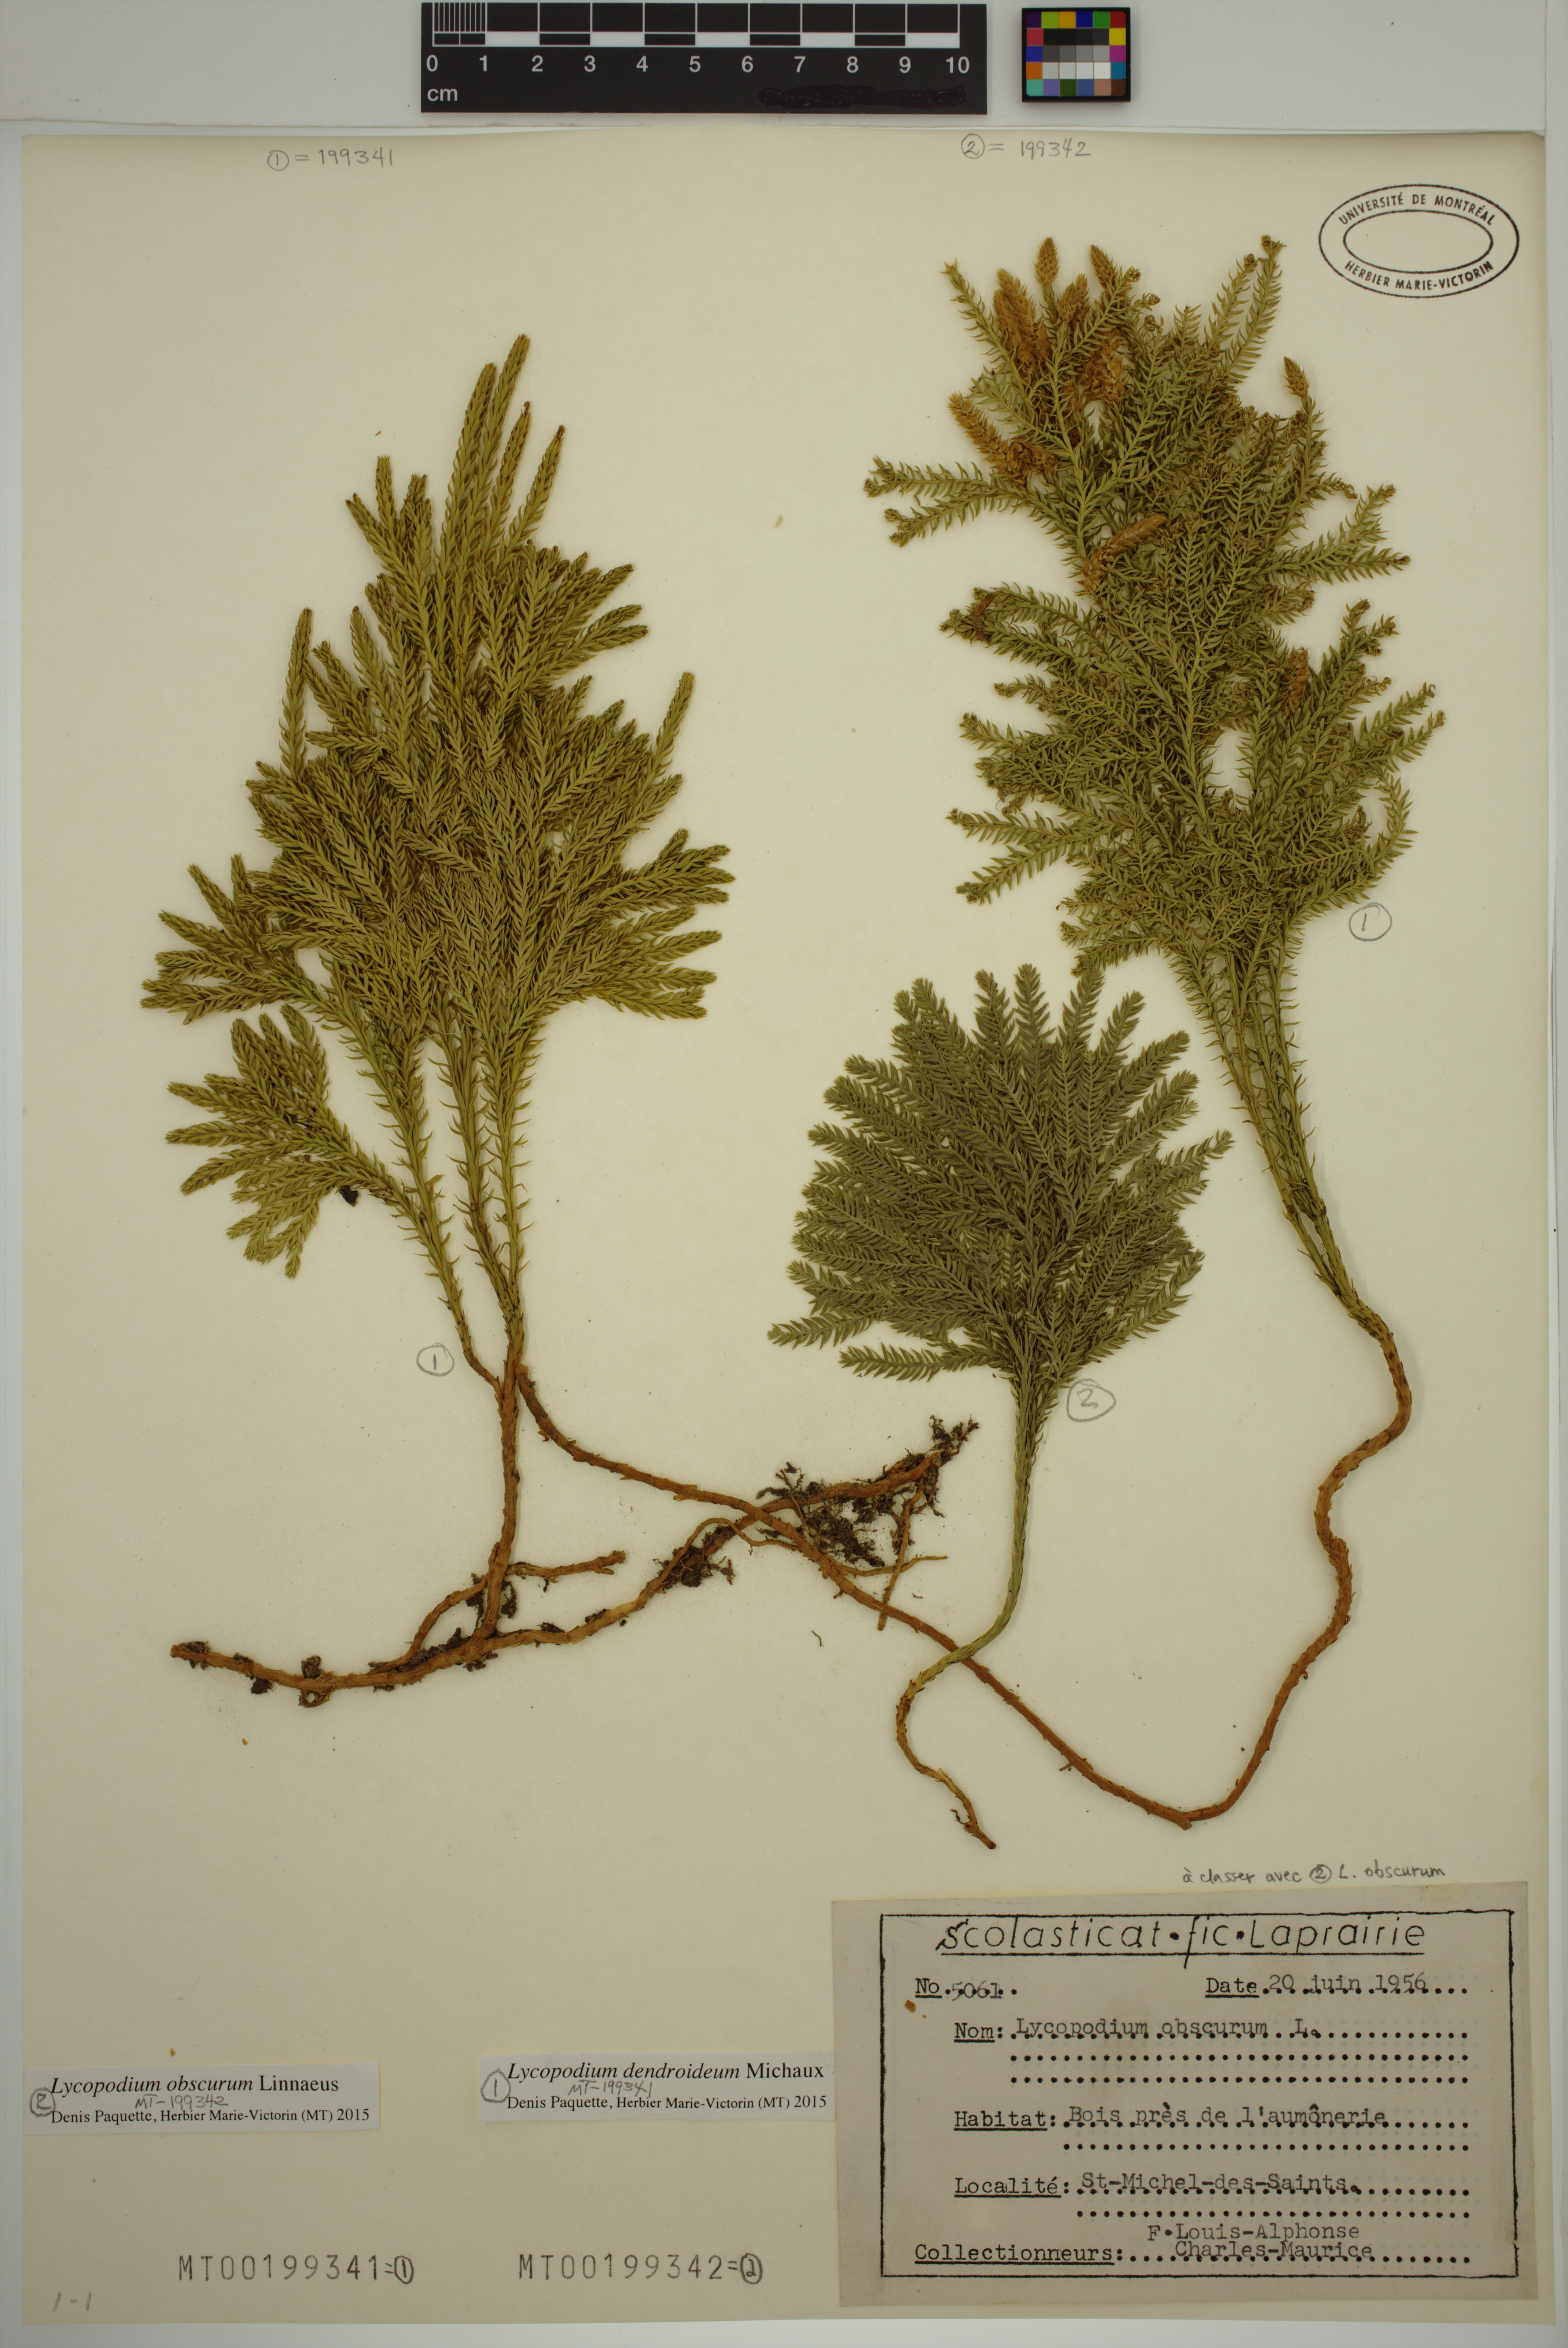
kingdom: Plantae
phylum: Tracheophyta
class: Lycopodiopsida
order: Lycopodiales
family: Lycopodiaceae
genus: Dendrolycopodium
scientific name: Dendrolycopodium dendroideum
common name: Northern tree-clubmoss
